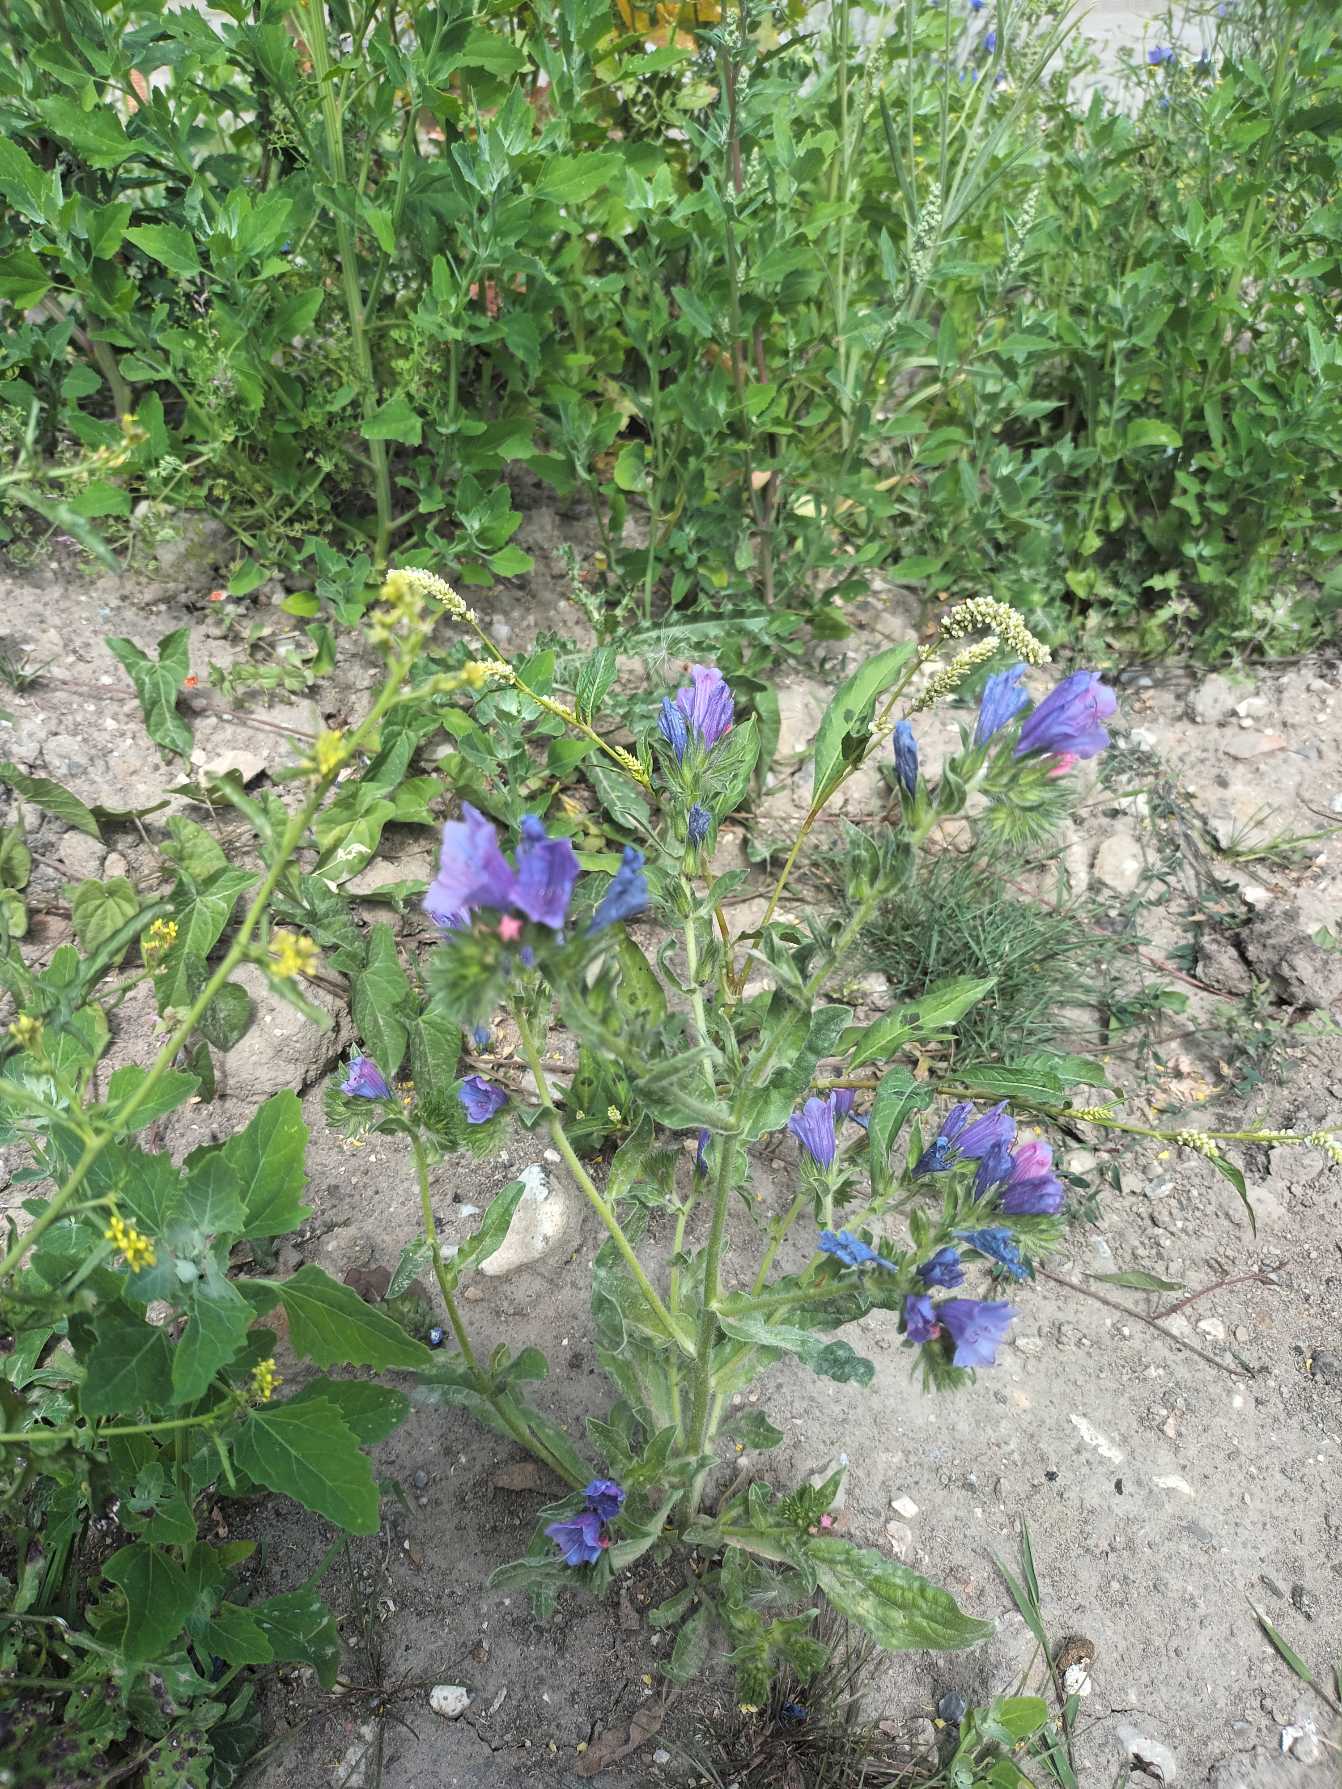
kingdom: Plantae
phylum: Tracheophyta
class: Magnoliopsida
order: Boraginales
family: Boraginaceae
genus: Echium
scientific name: Echium plantagineum
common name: Vejbred-slangehoved
